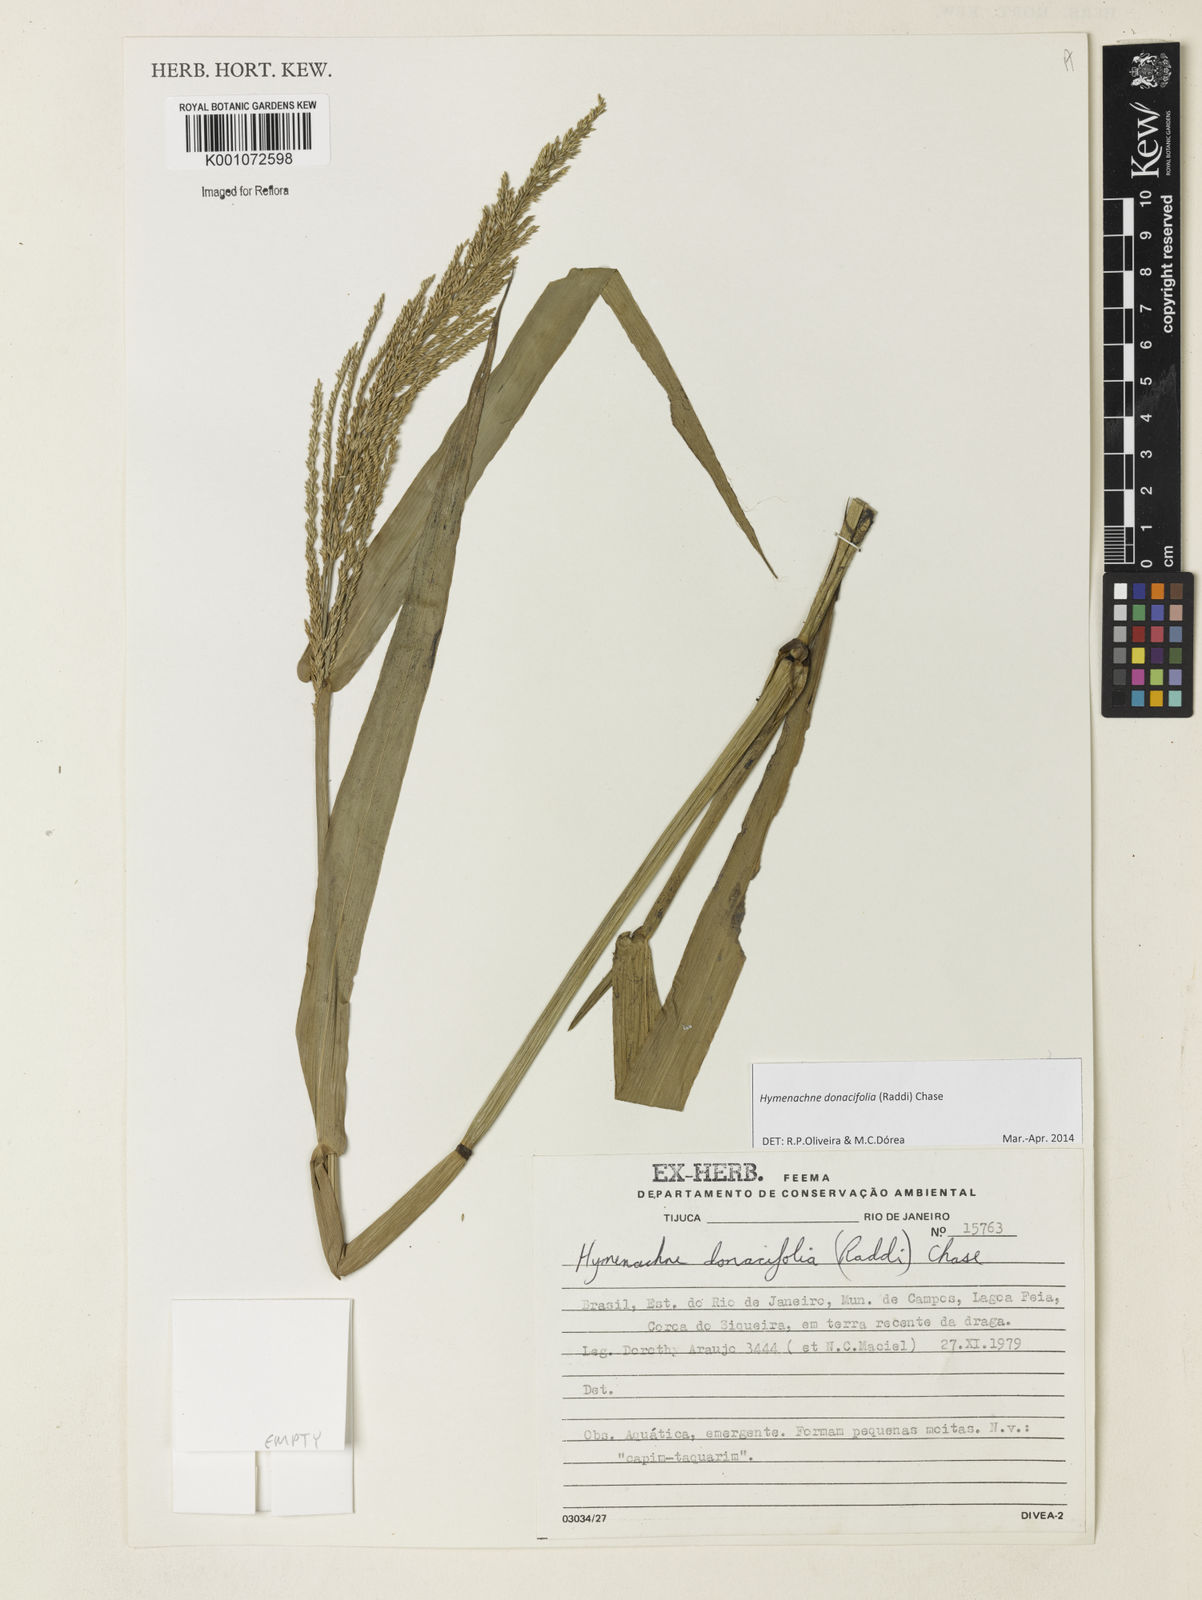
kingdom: Plantae
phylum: Tracheophyta
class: Liliopsida
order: Poales
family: Poaceae
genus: Hymenachne
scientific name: Hymenachne donacifolia
